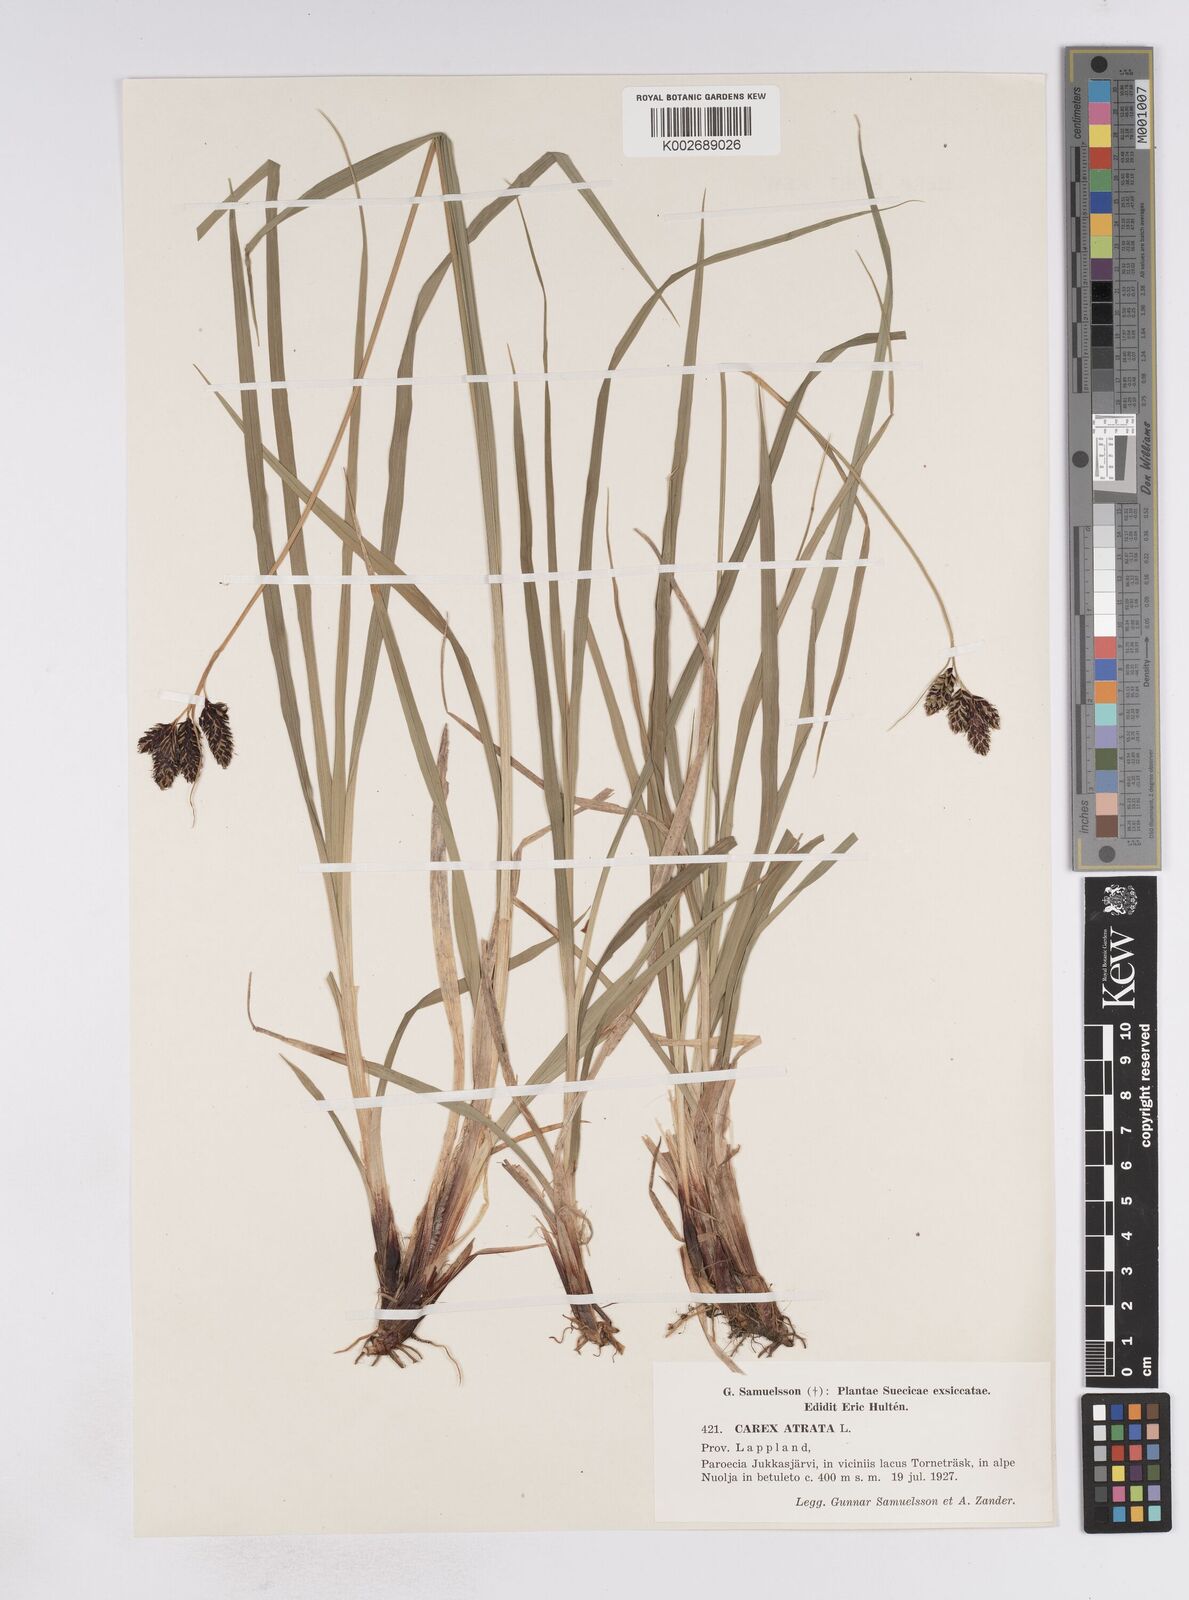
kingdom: Plantae
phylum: Tracheophyta
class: Liliopsida
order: Poales
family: Cyperaceae
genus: Carex
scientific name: Carex atrata
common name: Black alpine sedge
